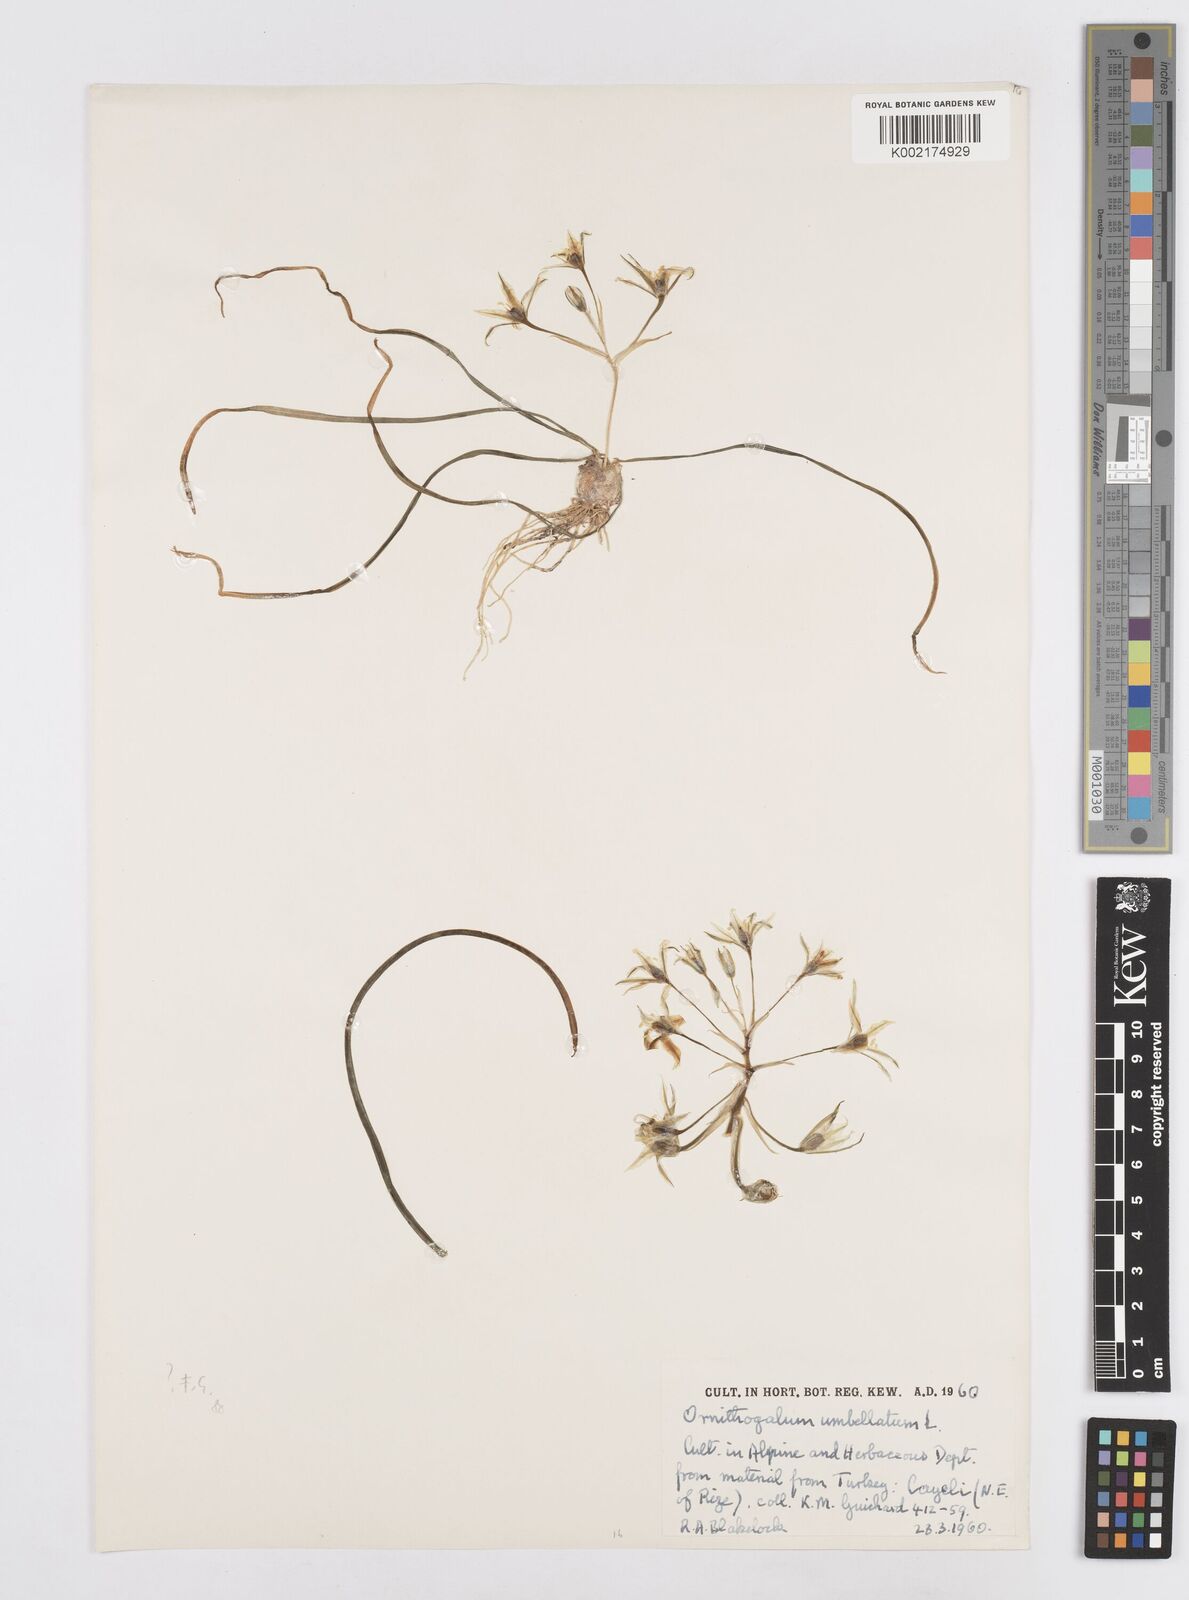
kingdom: Plantae
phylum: Tracheophyta
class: Liliopsida
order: Asparagales
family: Asparagaceae
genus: Ornithogalum
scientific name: Ornithogalum umbellatum
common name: Garden star-of-bethlehem
